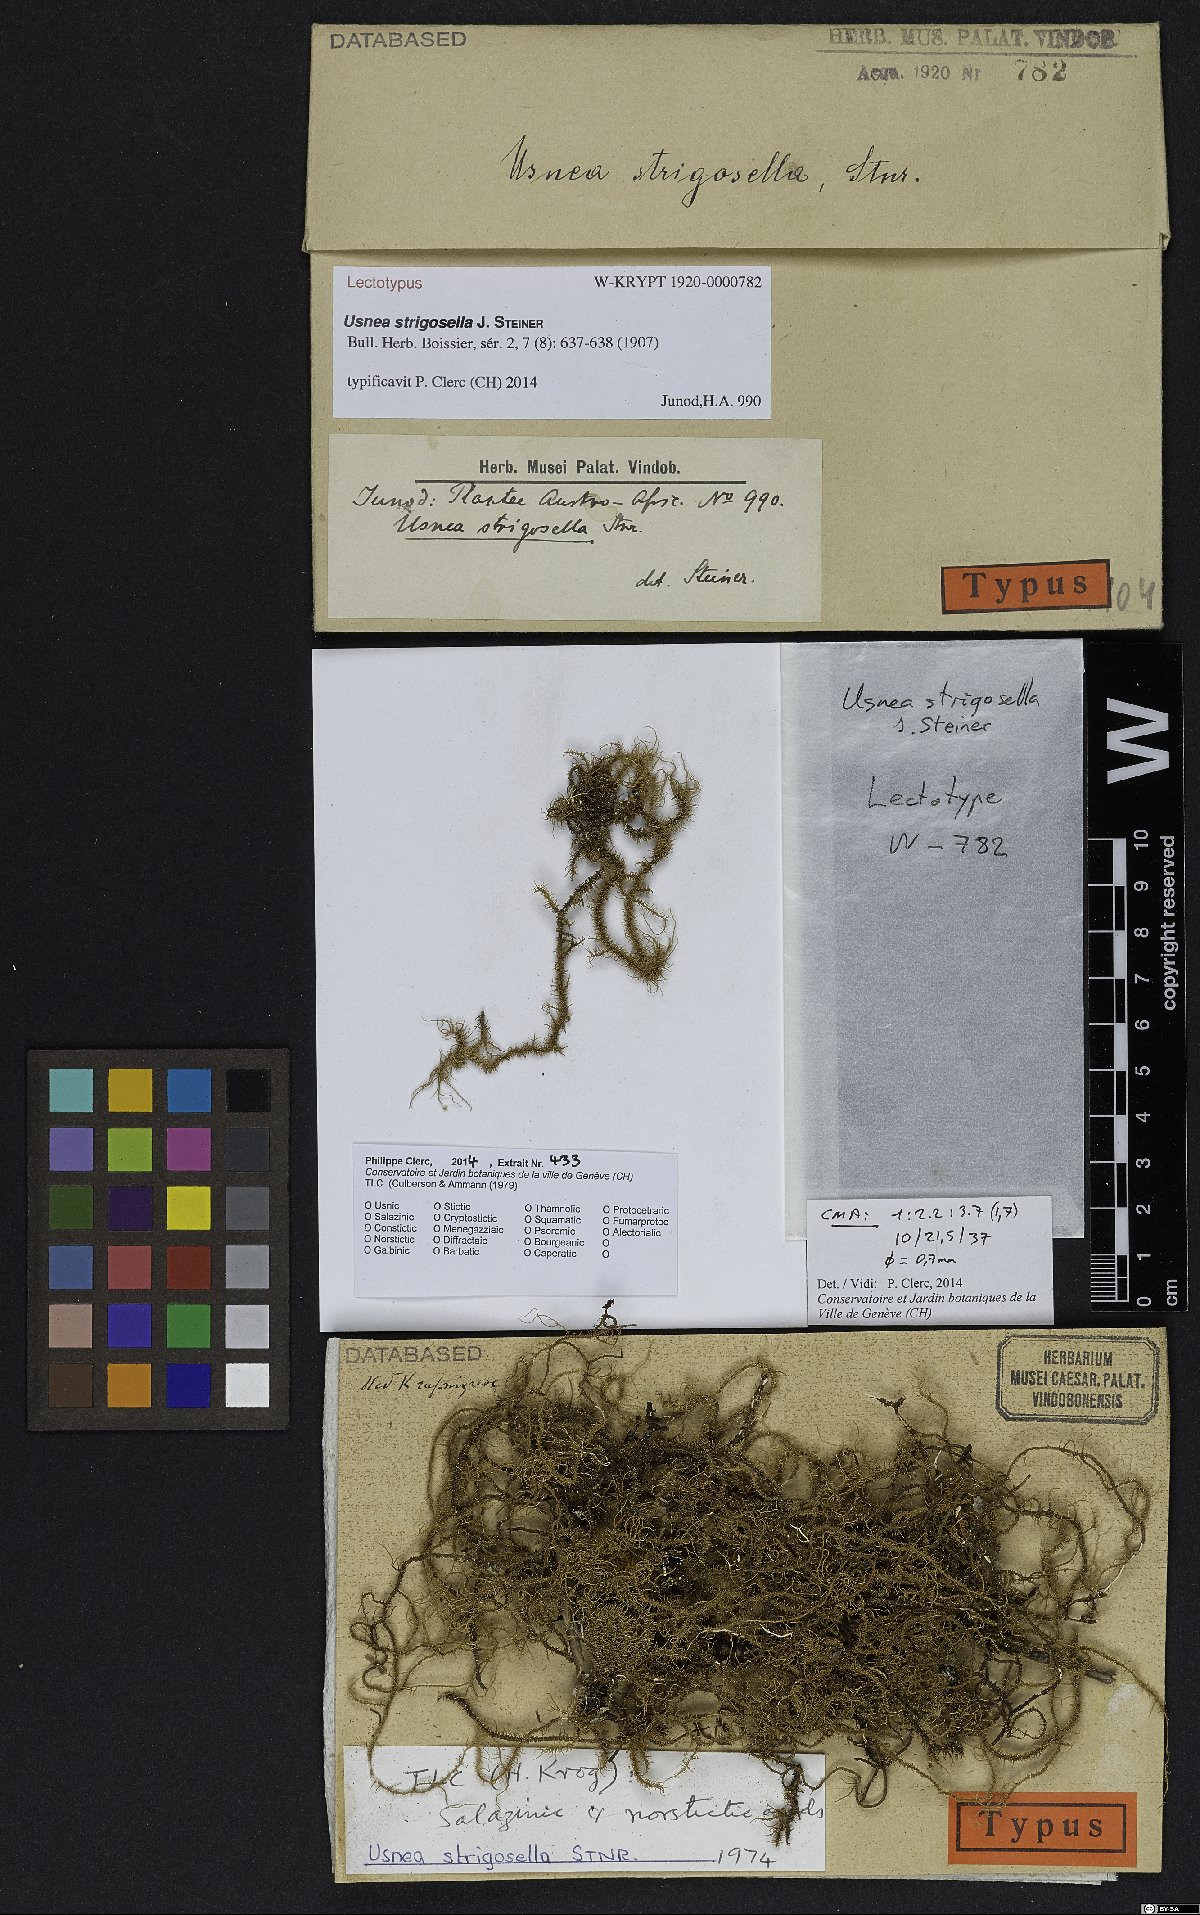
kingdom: Fungi
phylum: Ascomycota
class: Lecanoromycetes
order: Lecanorales
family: Parmeliaceae
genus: Usnea
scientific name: Usnea strigosella
